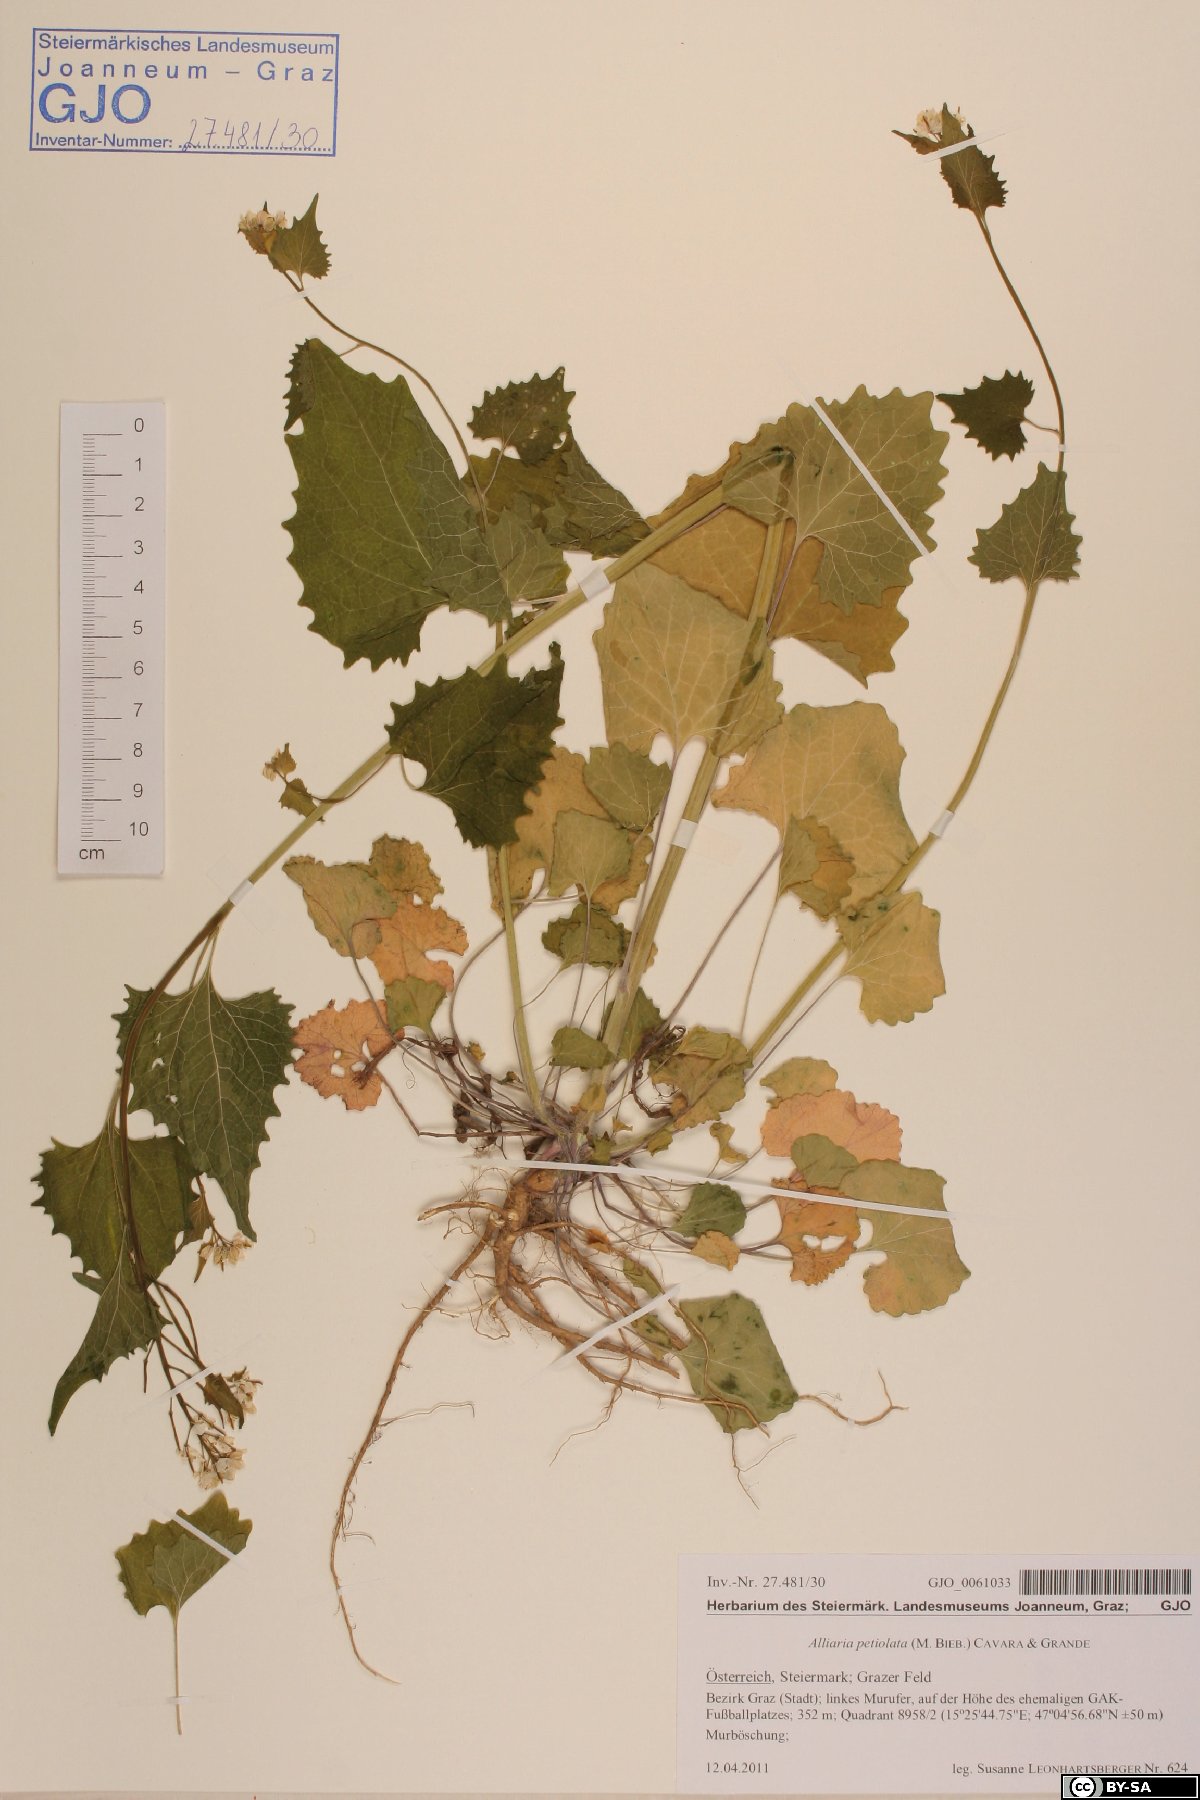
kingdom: Plantae
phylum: Tracheophyta
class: Magnoliopsida
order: Brassicales
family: Brassicaceae
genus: Alliaria
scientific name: Alliaria petiolata
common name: Garlic mustard
